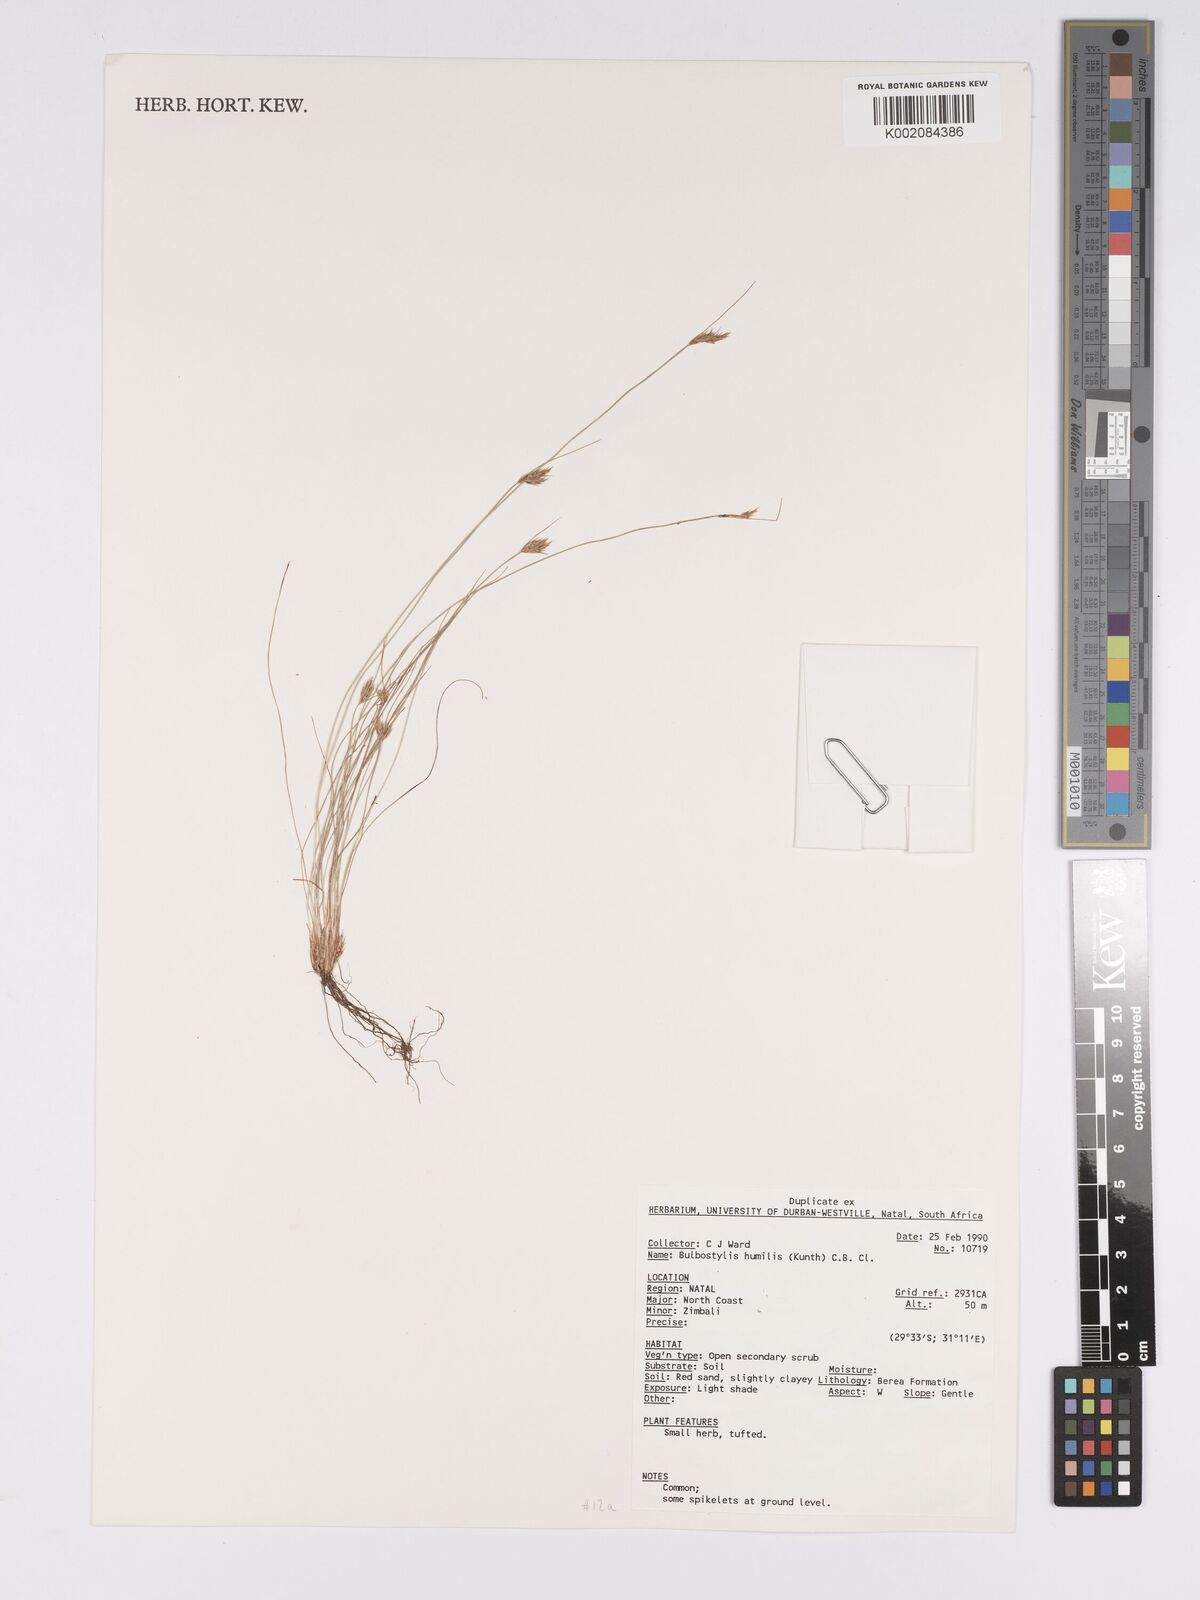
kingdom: Plantae
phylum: Tracheophyta
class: Liliopsida
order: Poales
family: Cyperaceae
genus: Bulbostylis
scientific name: Bulbostylis humilis
